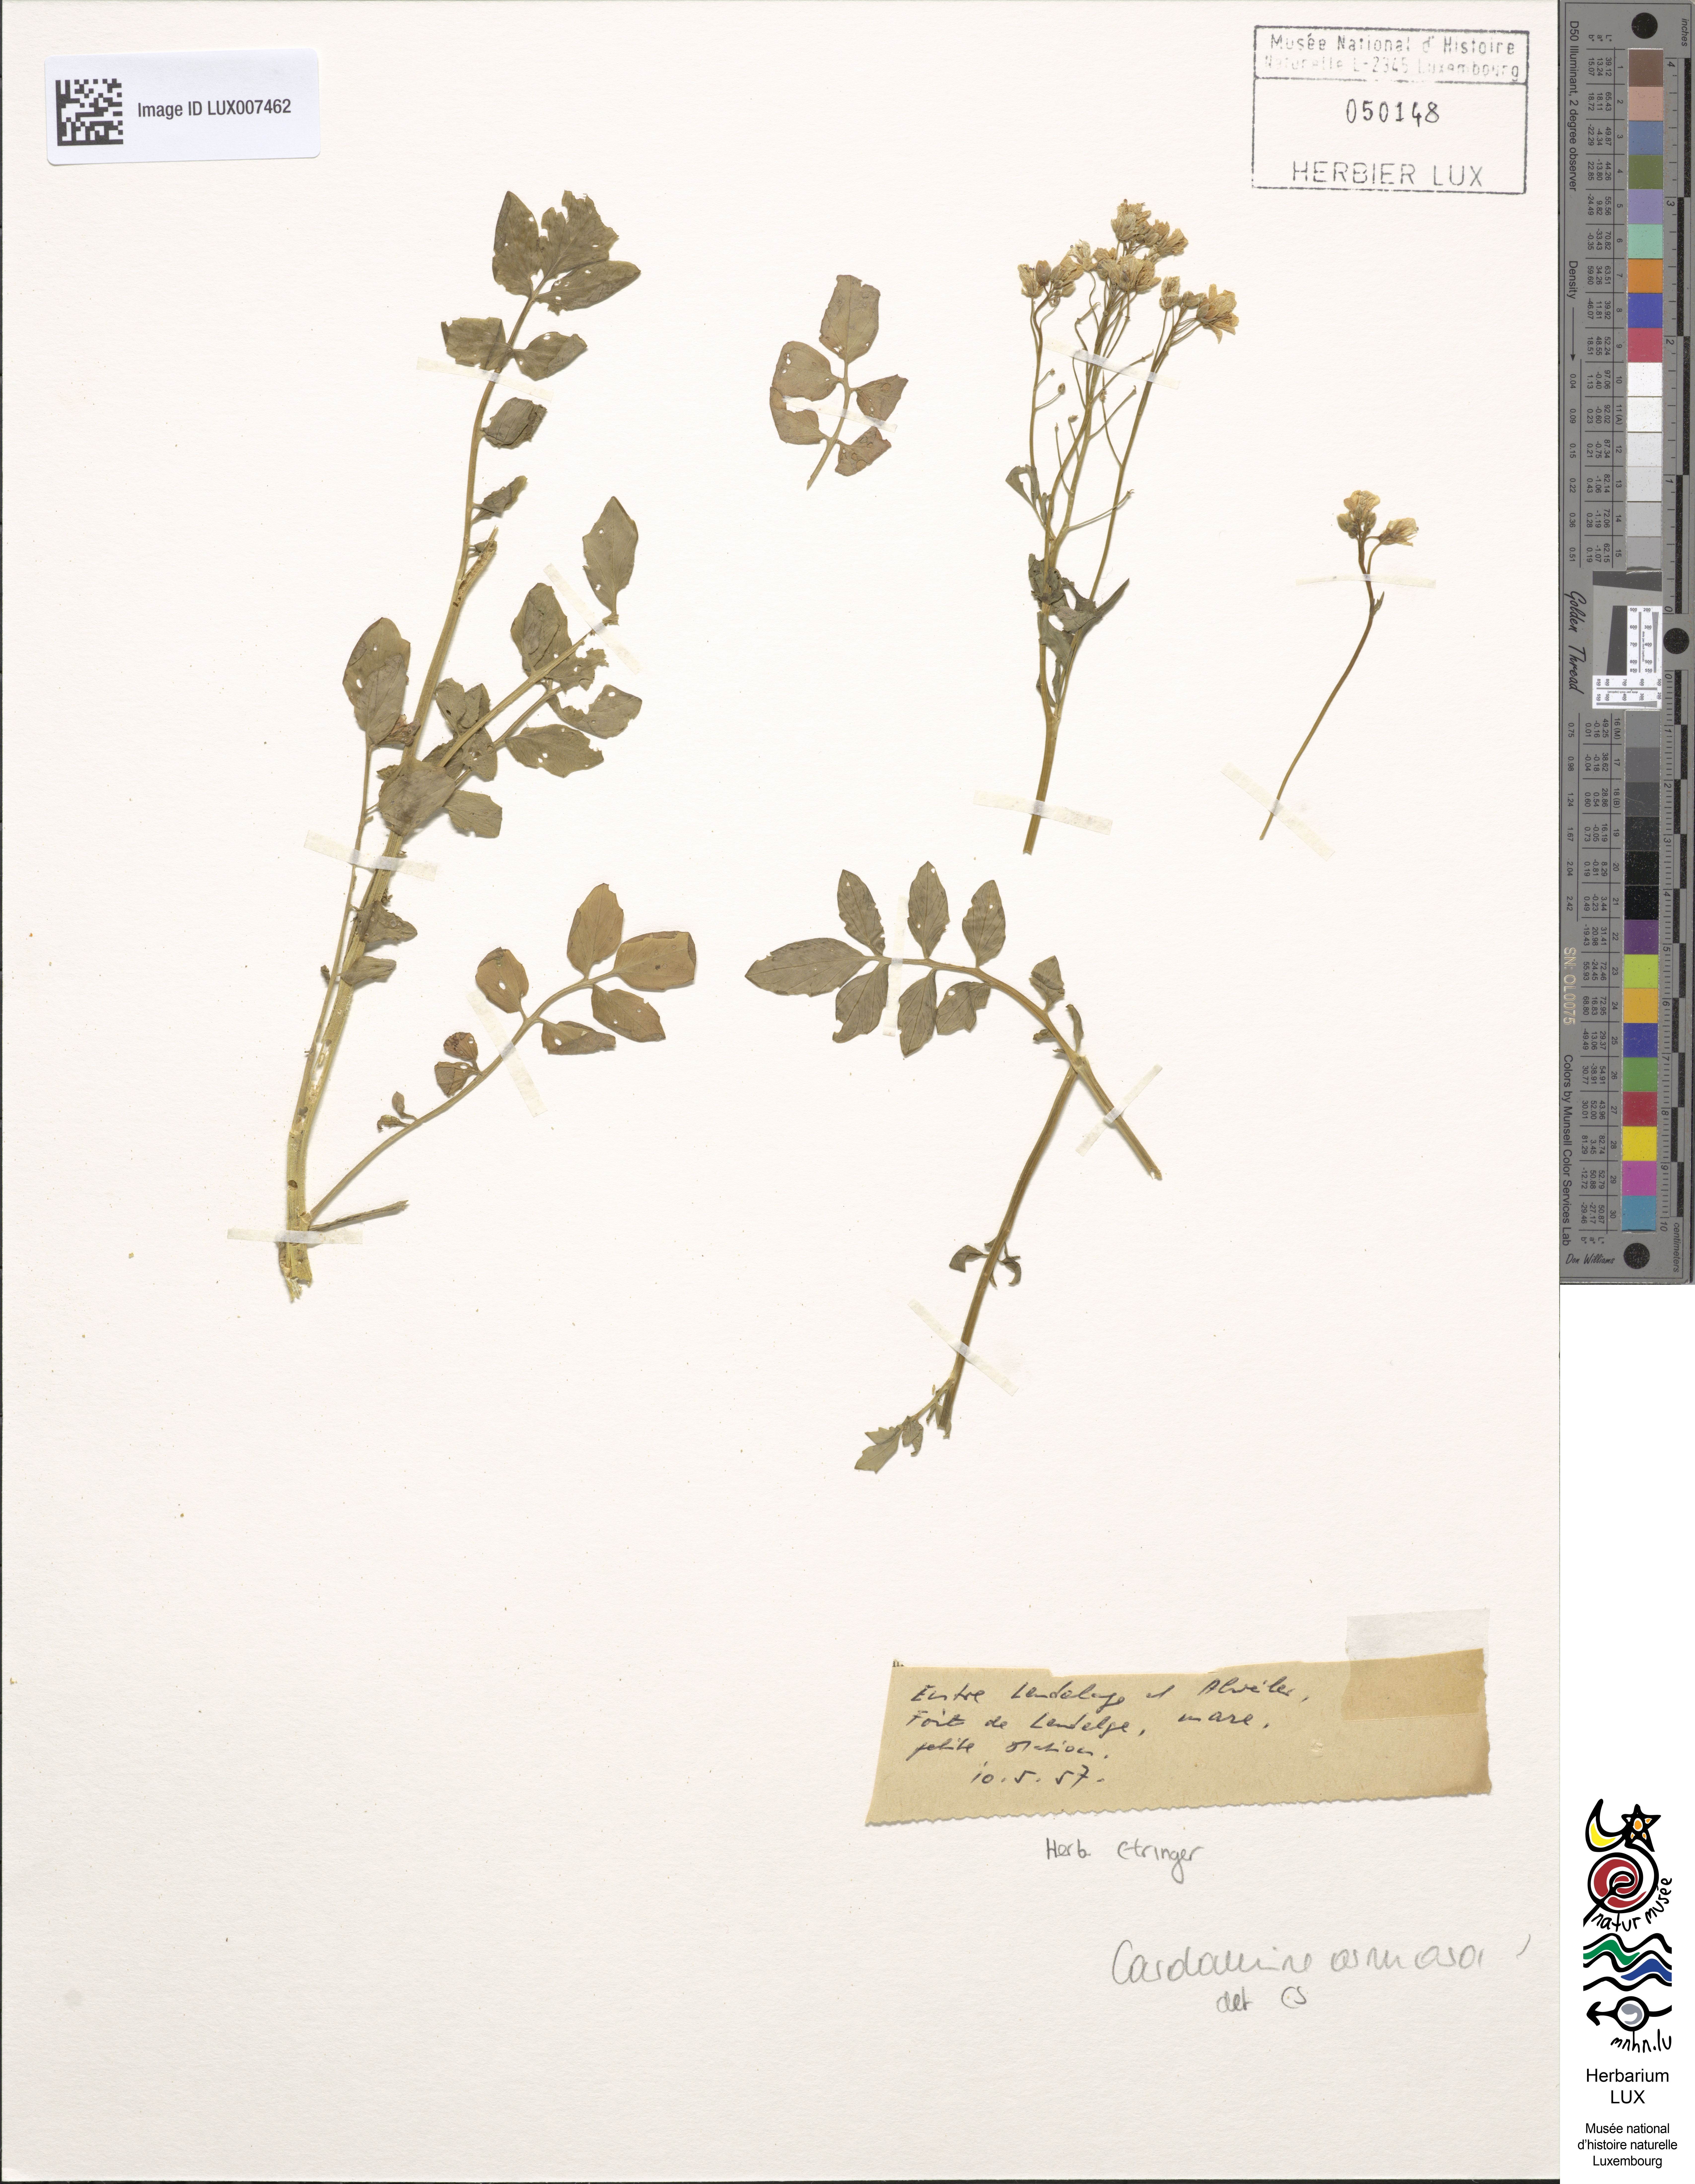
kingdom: Plantae
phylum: Tracheophyta
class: Magnoliopsida
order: Brassicales
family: Brassicaceae
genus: Cardamine
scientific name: Cardamine amara
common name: Large bitter-cress
